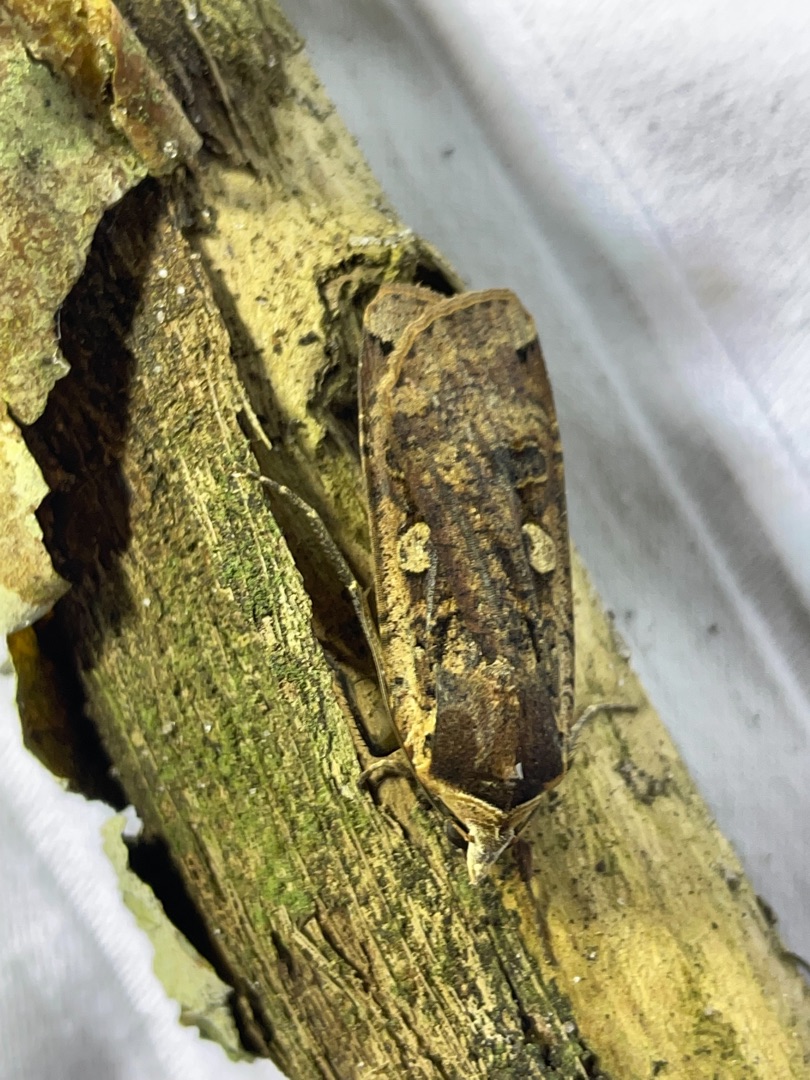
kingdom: Animalia
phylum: Arthropoda
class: Insecta
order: Lepidoptera
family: Noctuidae
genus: Noctua
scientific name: Noctua pronuba
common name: Stor smutugle
